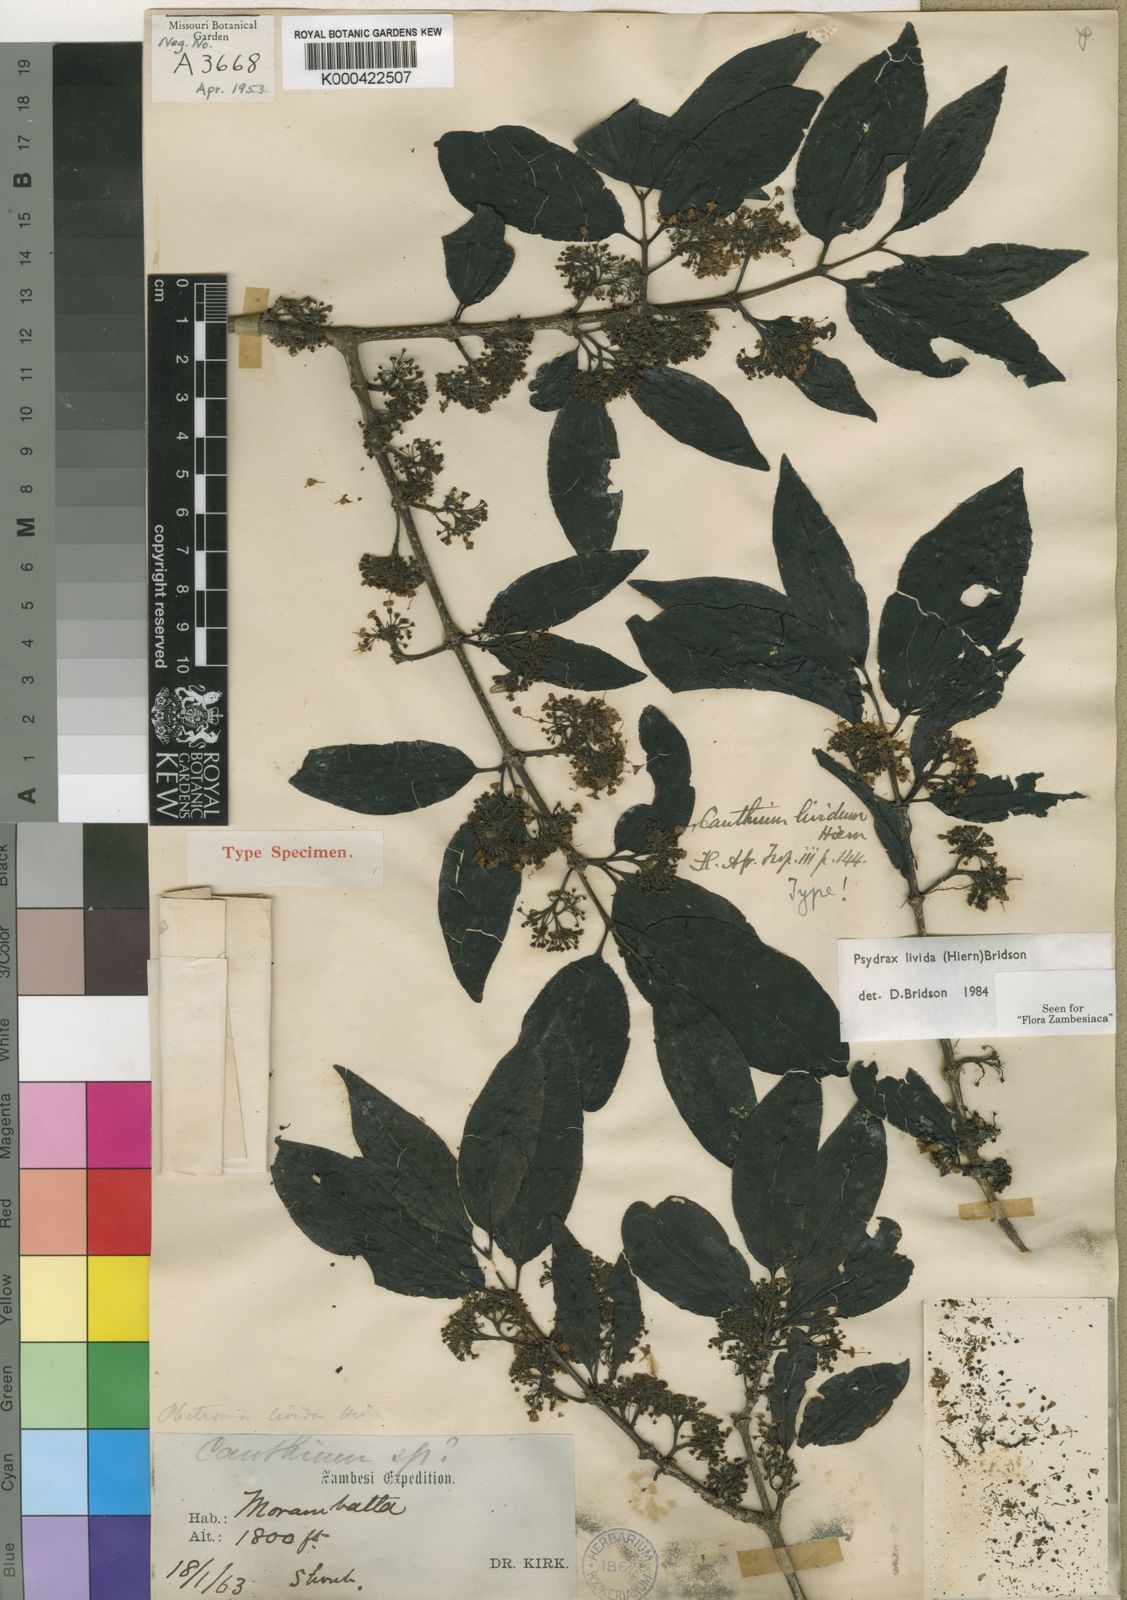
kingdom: Plantae
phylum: Tracheophyta
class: Magnoliopsida
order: Gentianales
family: Rubiaceae
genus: Psydrax
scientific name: Psydrax lividus
